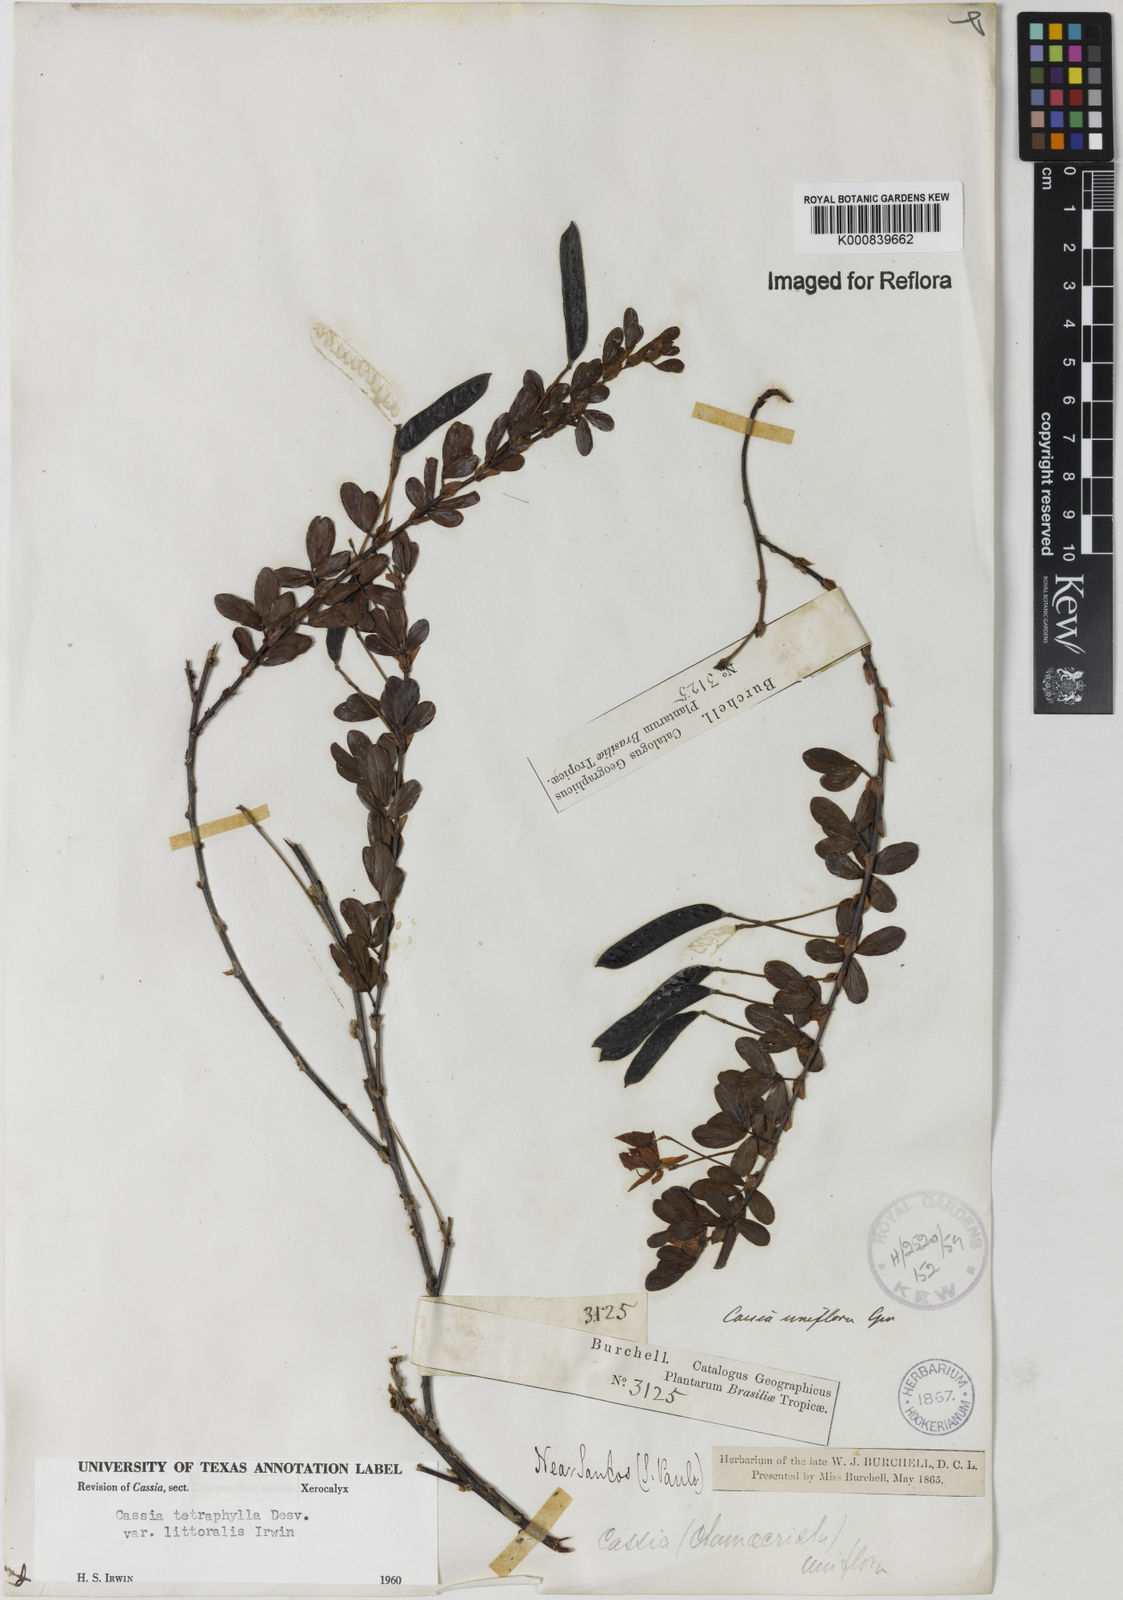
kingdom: Plantae
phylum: Tracheophyta
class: Magnoliopsida
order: Fabales
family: Fabaceae
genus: Chamaecrista
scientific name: Chamaecrista desvauxii
